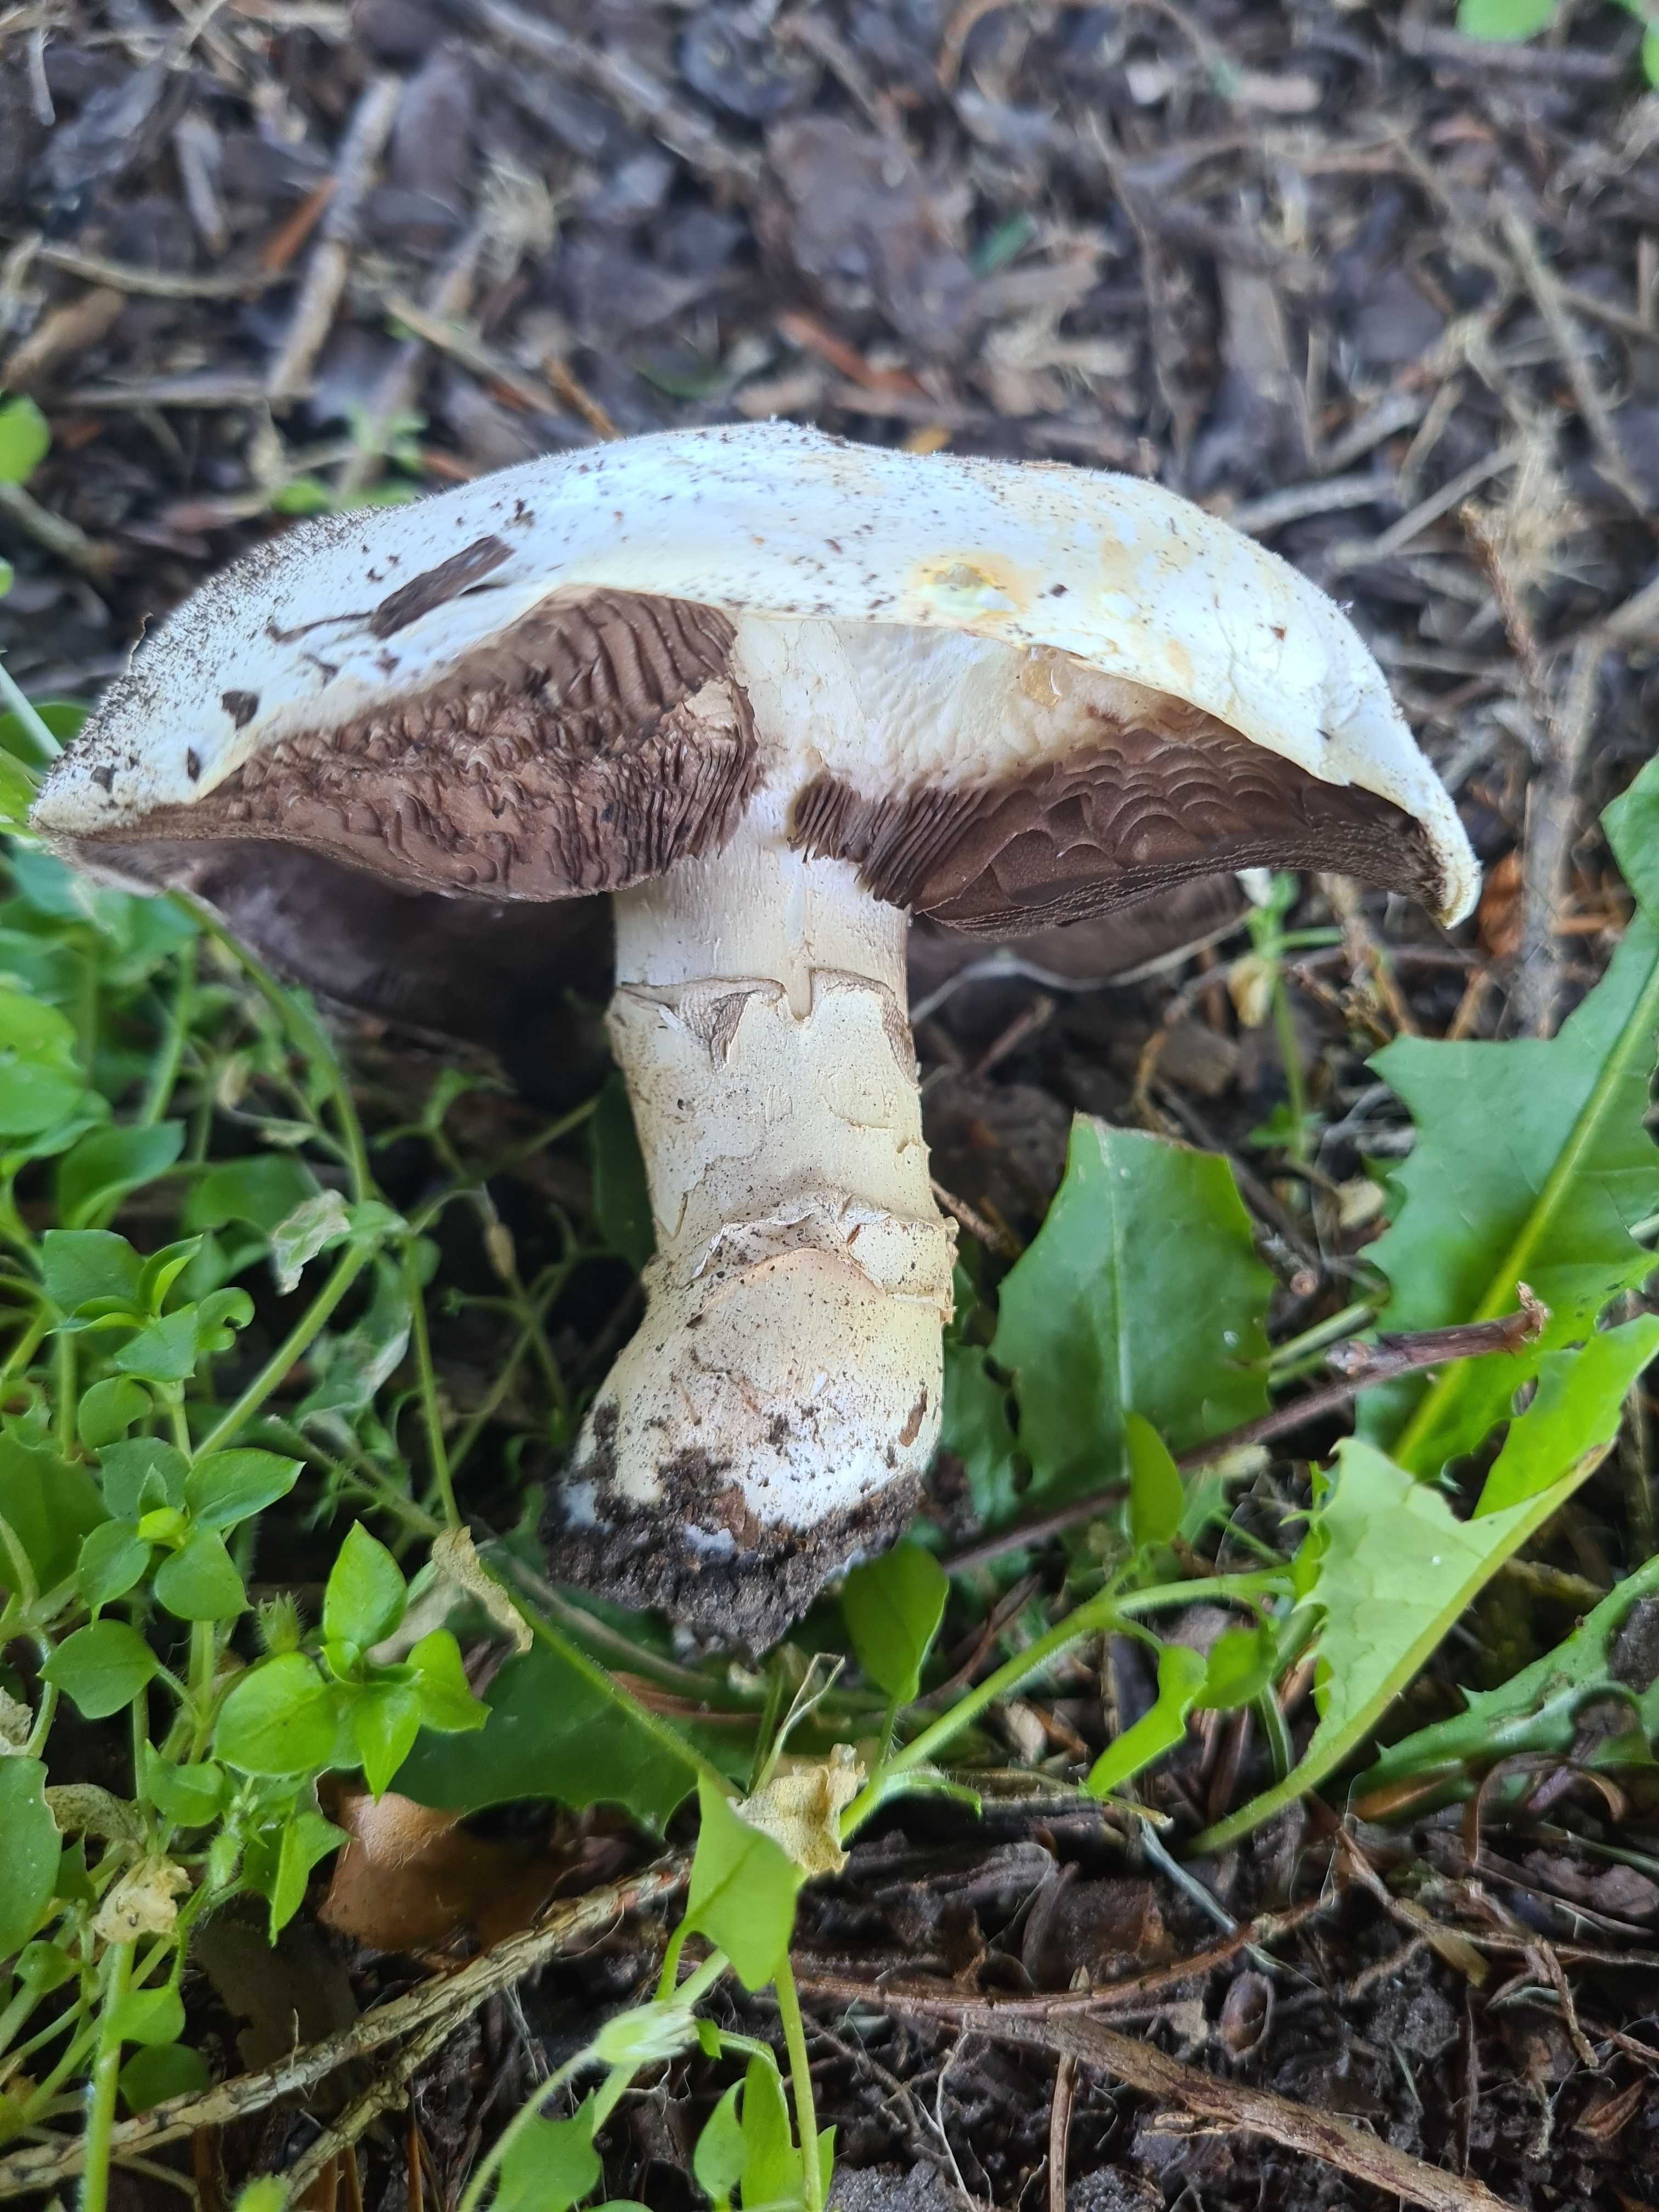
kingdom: Fungi
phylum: Basidiomycota
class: Agaricomycetes
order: Agaricales
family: Agaricaceae
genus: Agaricus
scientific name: Agaricus bitorquis
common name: vej-champignon
